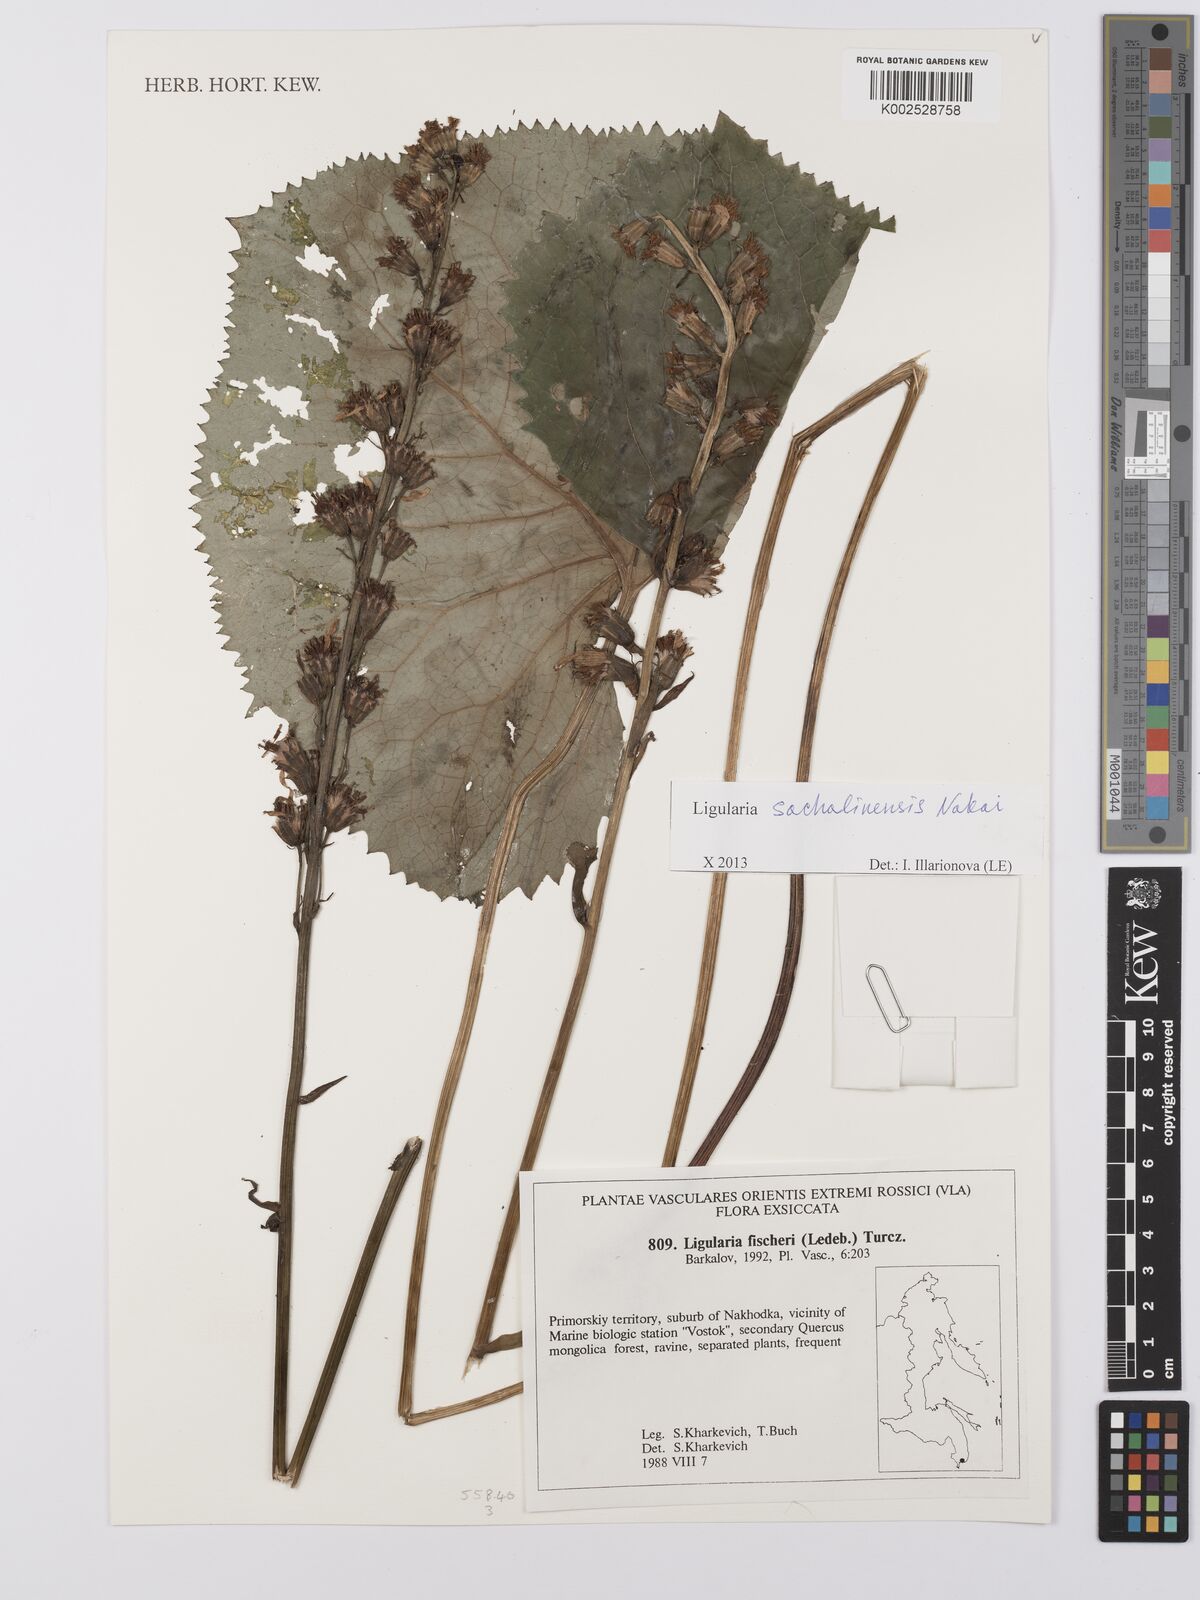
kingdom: Plantae
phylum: Tracheophyta
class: Magnoliopsida
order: Asterales
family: Asteraceae
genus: Ligularia
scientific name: Ligularia sachalinensis
